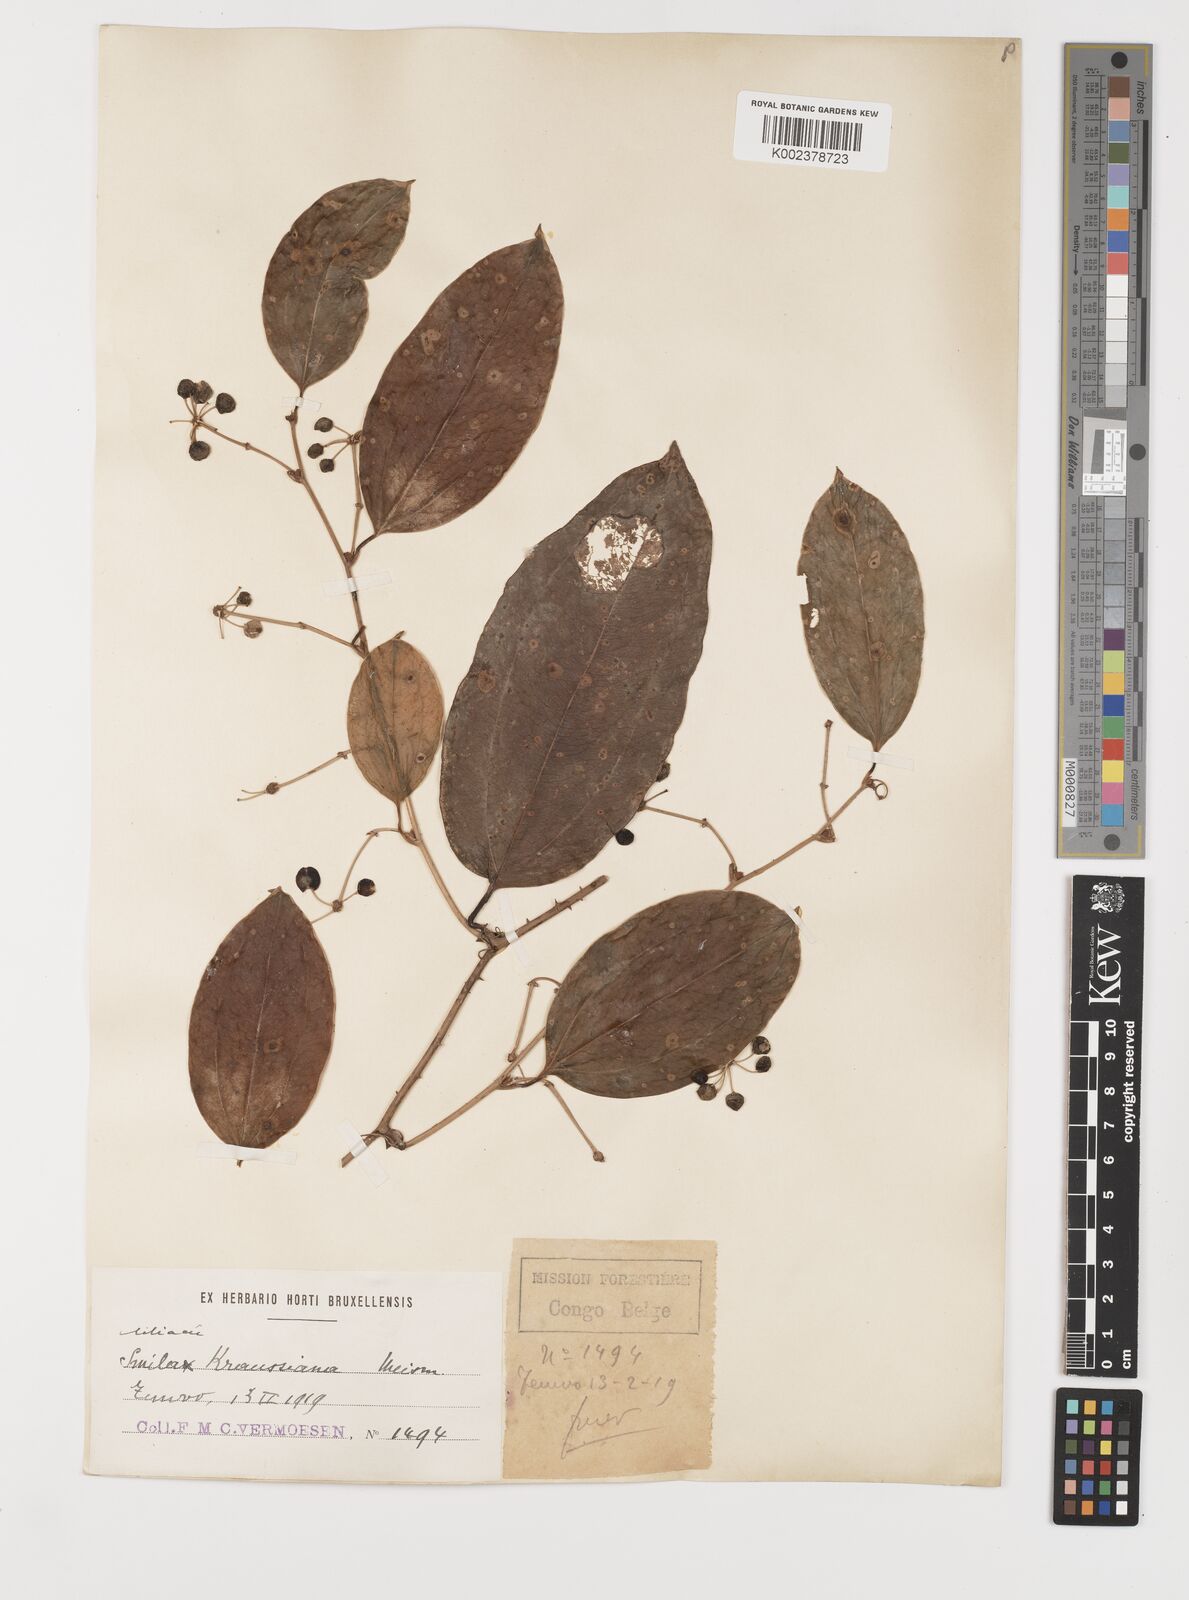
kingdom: Plantae
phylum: Tracheophyta
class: Liliopsida
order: Liliales
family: Smilacaceae
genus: Smilax
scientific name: Smilax anceps
